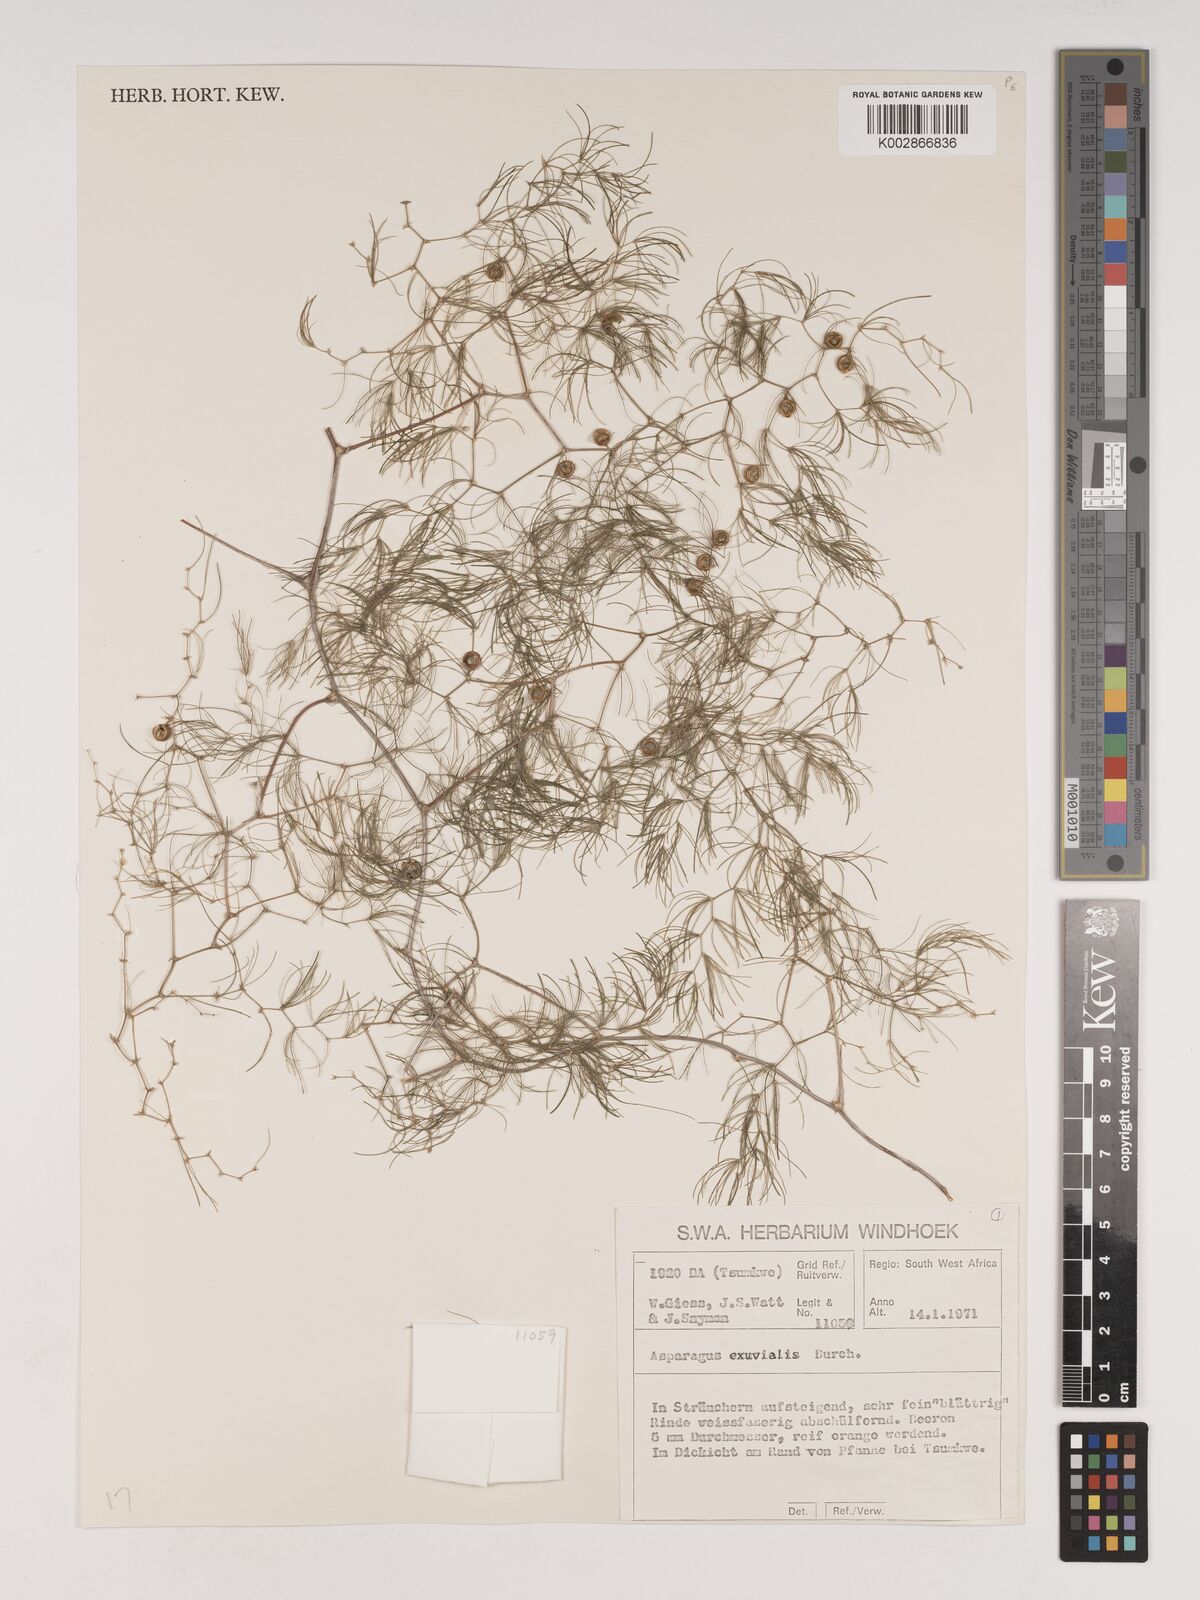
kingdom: Plantae
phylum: Tracheophyta
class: Liliopsida
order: Asparagales
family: Asparagaceae
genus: Asparagus
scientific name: Asparagus exuvialis
